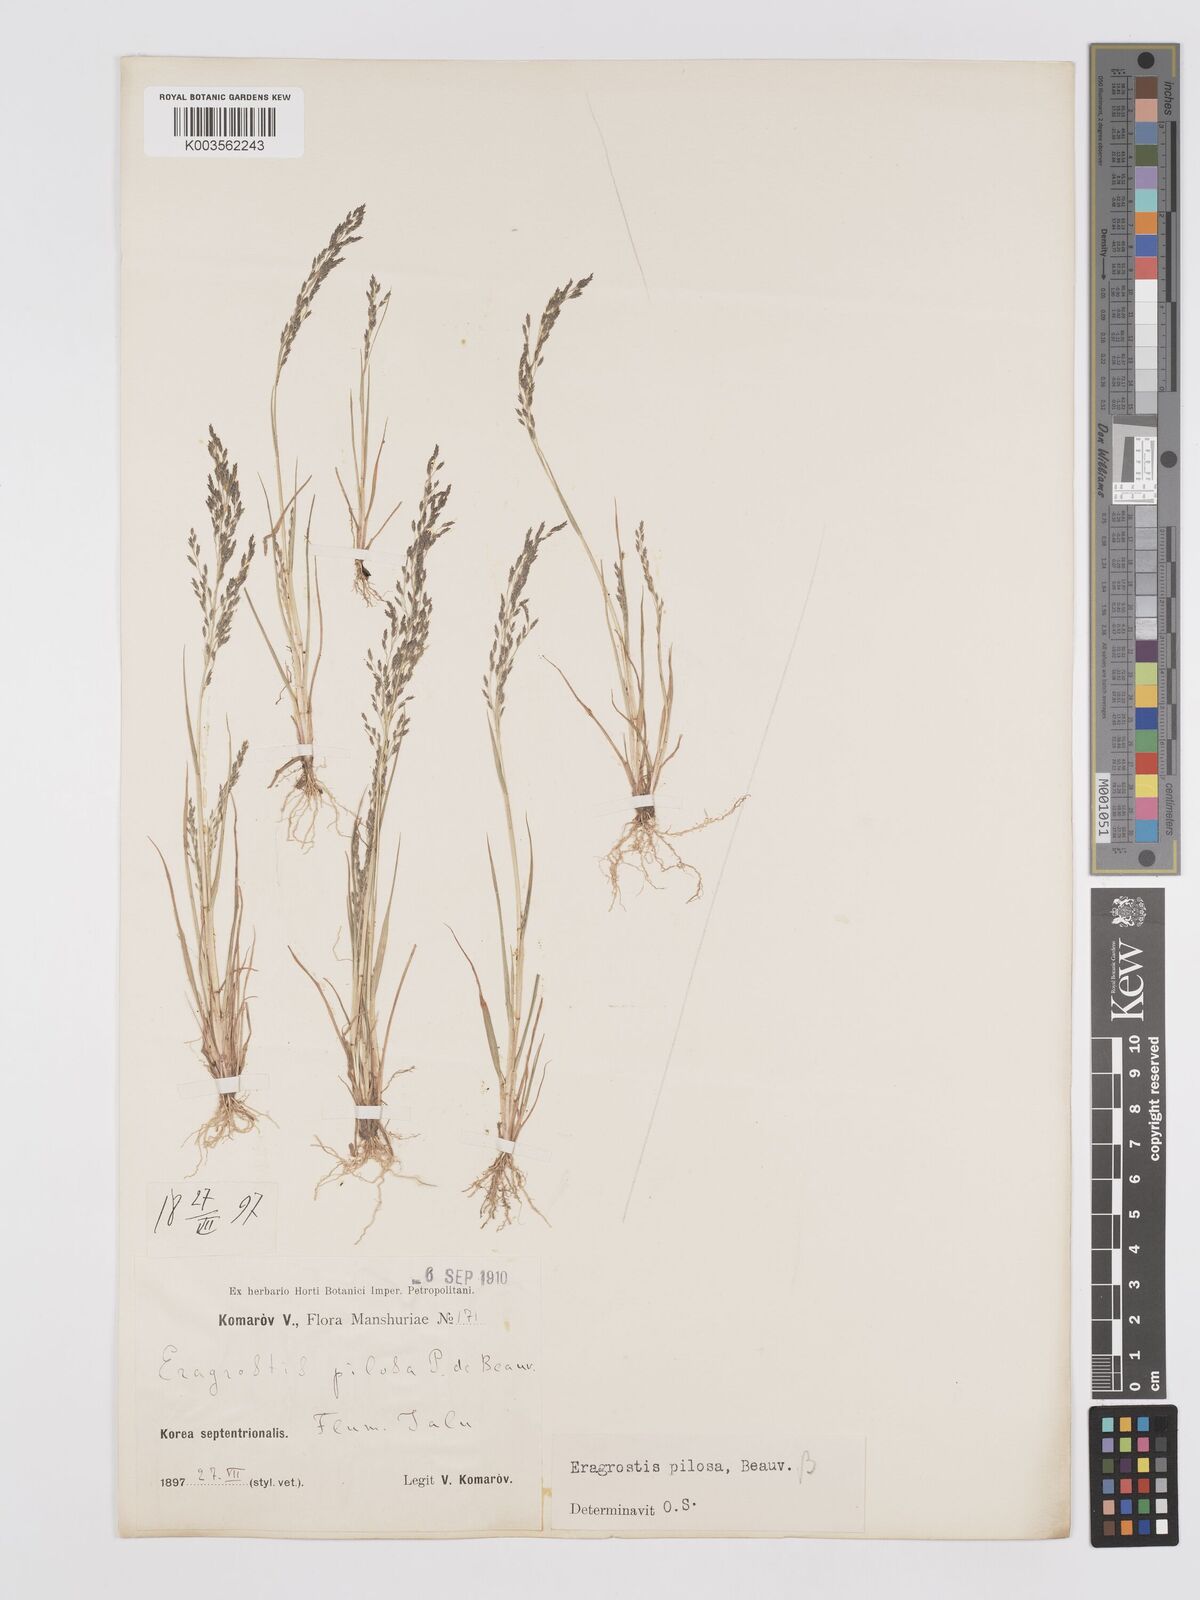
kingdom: Plantae
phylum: Tracheophyta
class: Liliopsida
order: Poales
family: Poaceae
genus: Eragrostis
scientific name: Eragrostis pilosa
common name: Indian lovegrass
